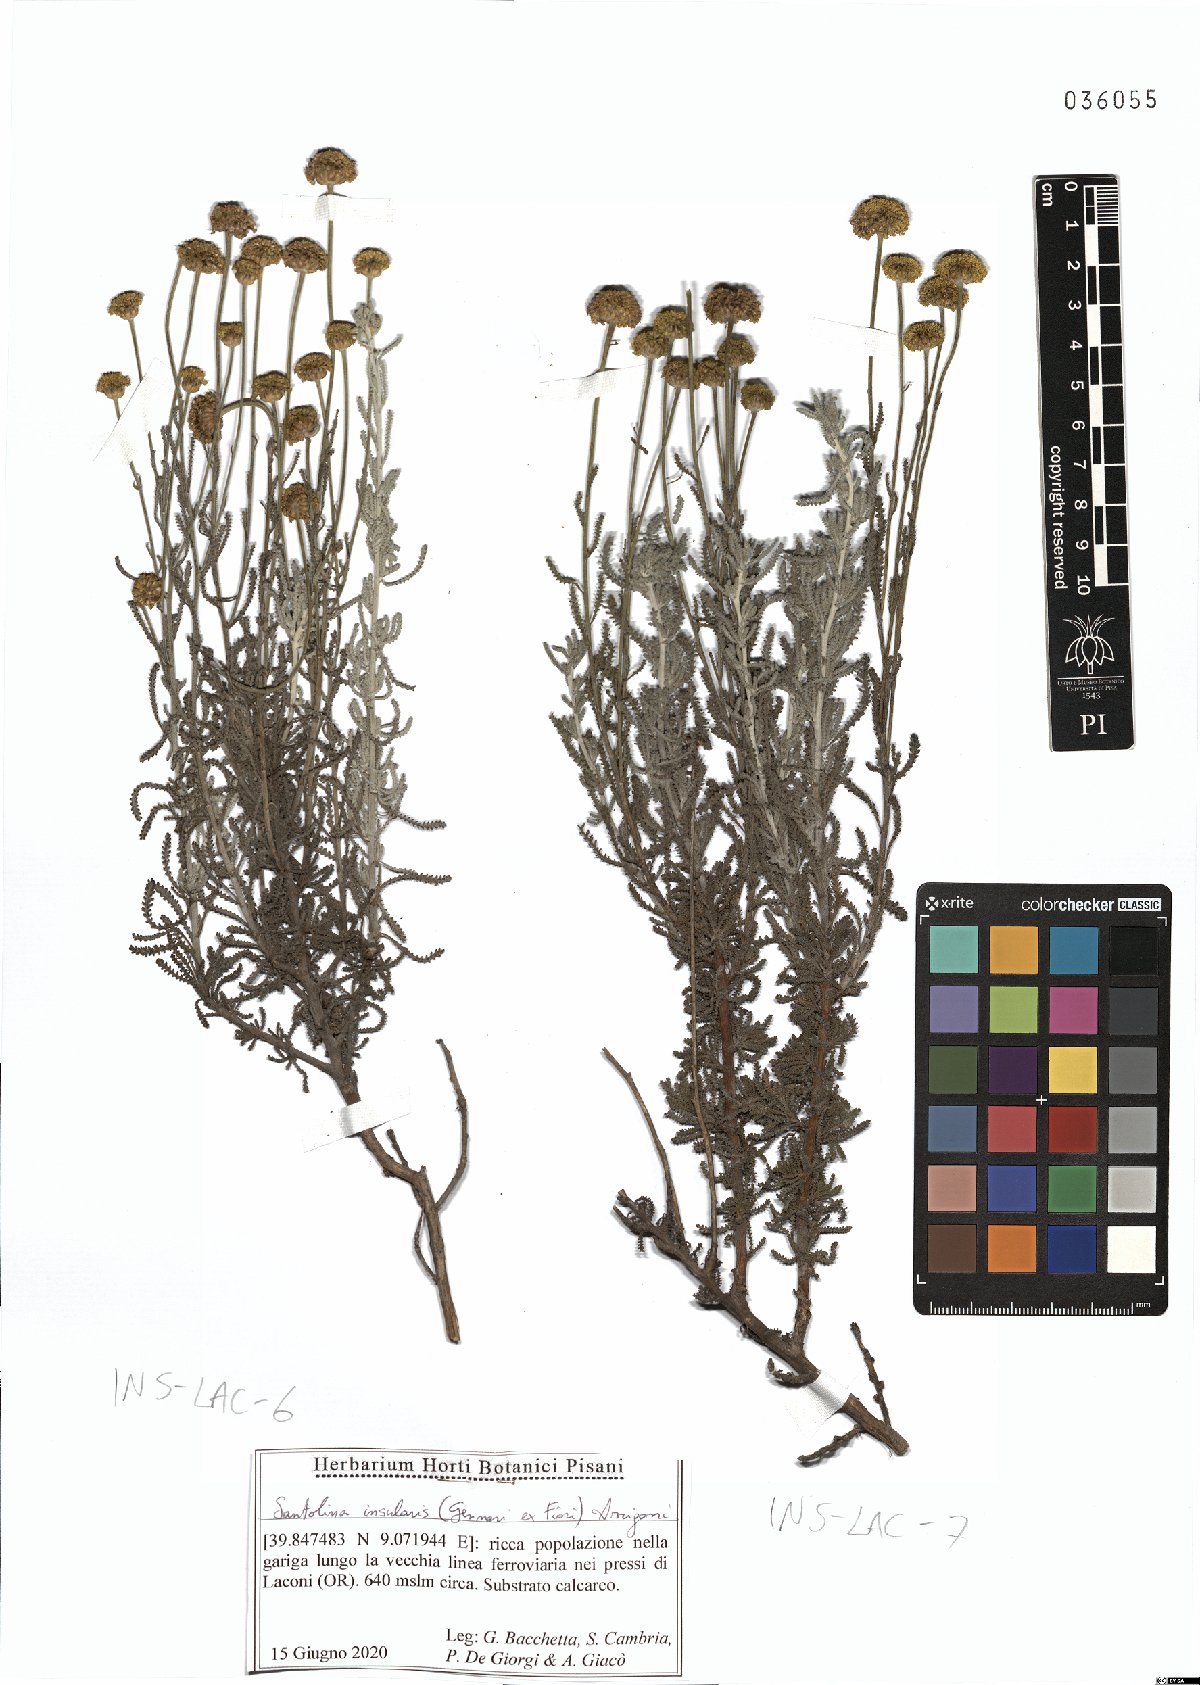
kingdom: Plantae
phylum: Tracheophyta
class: Magnoliopsida
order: Asterales
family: Asteraceae
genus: Santolina
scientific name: Santolina insularis
